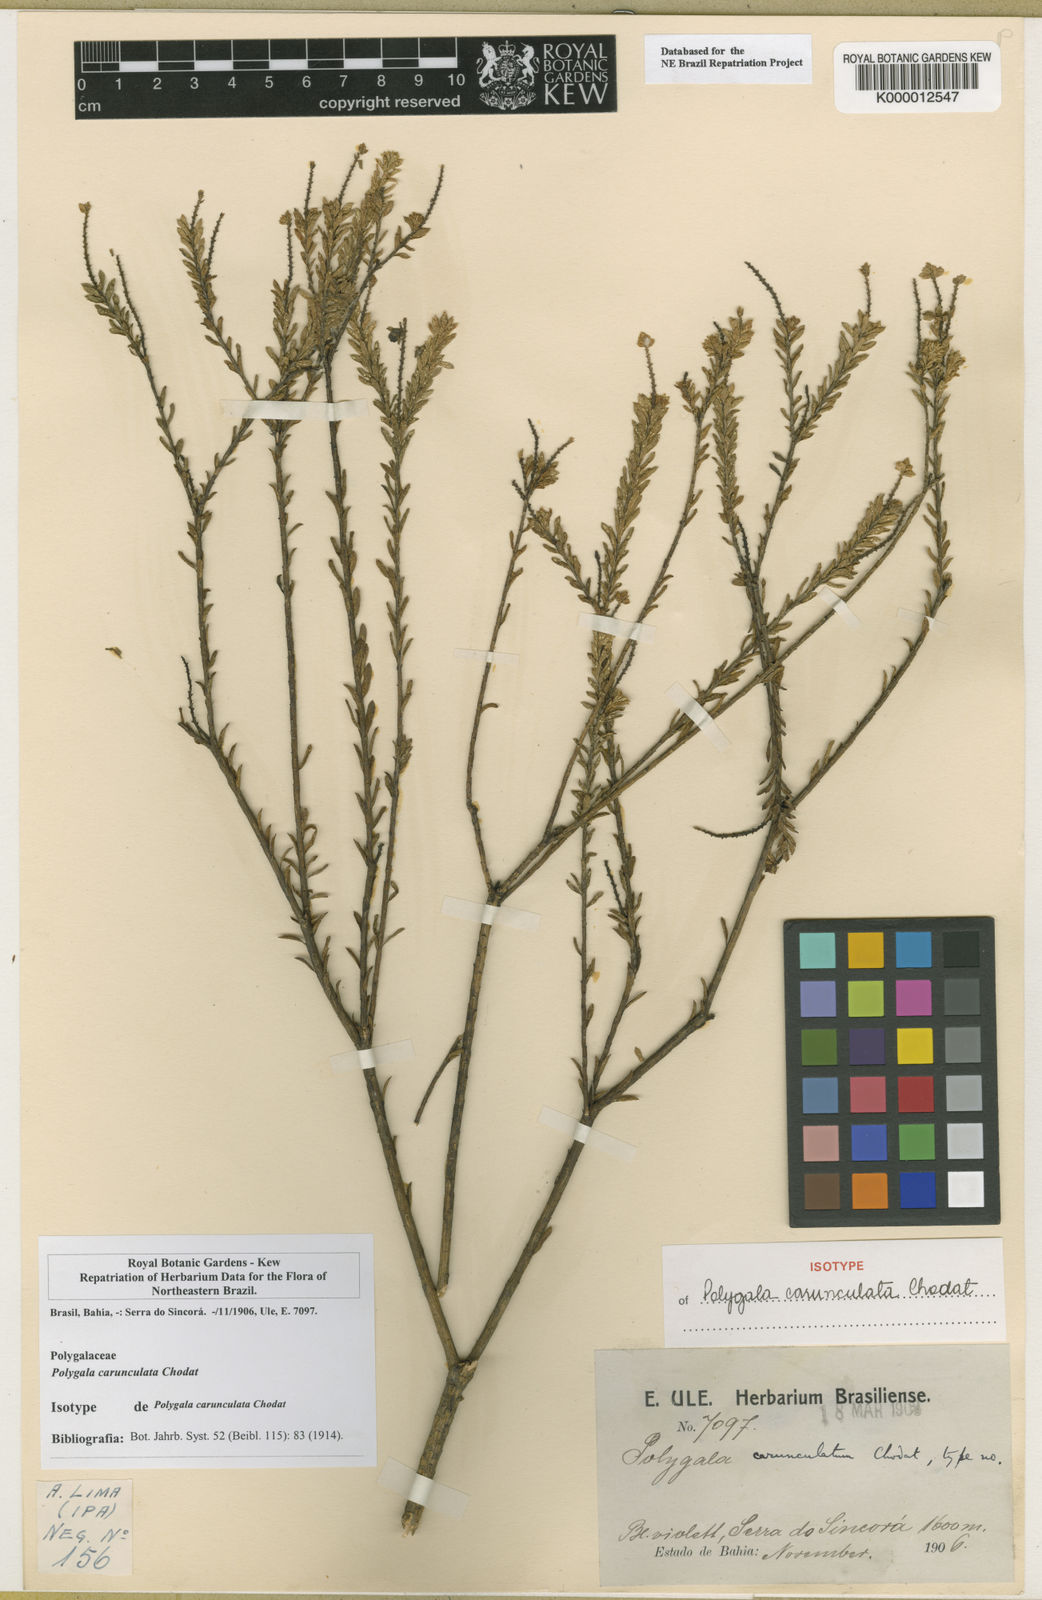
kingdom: Plantae
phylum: Tracheophyta
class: Magnoliopsida
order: Fabales
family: Polygalaceae
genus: Polygala
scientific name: Polygala tuberculata
